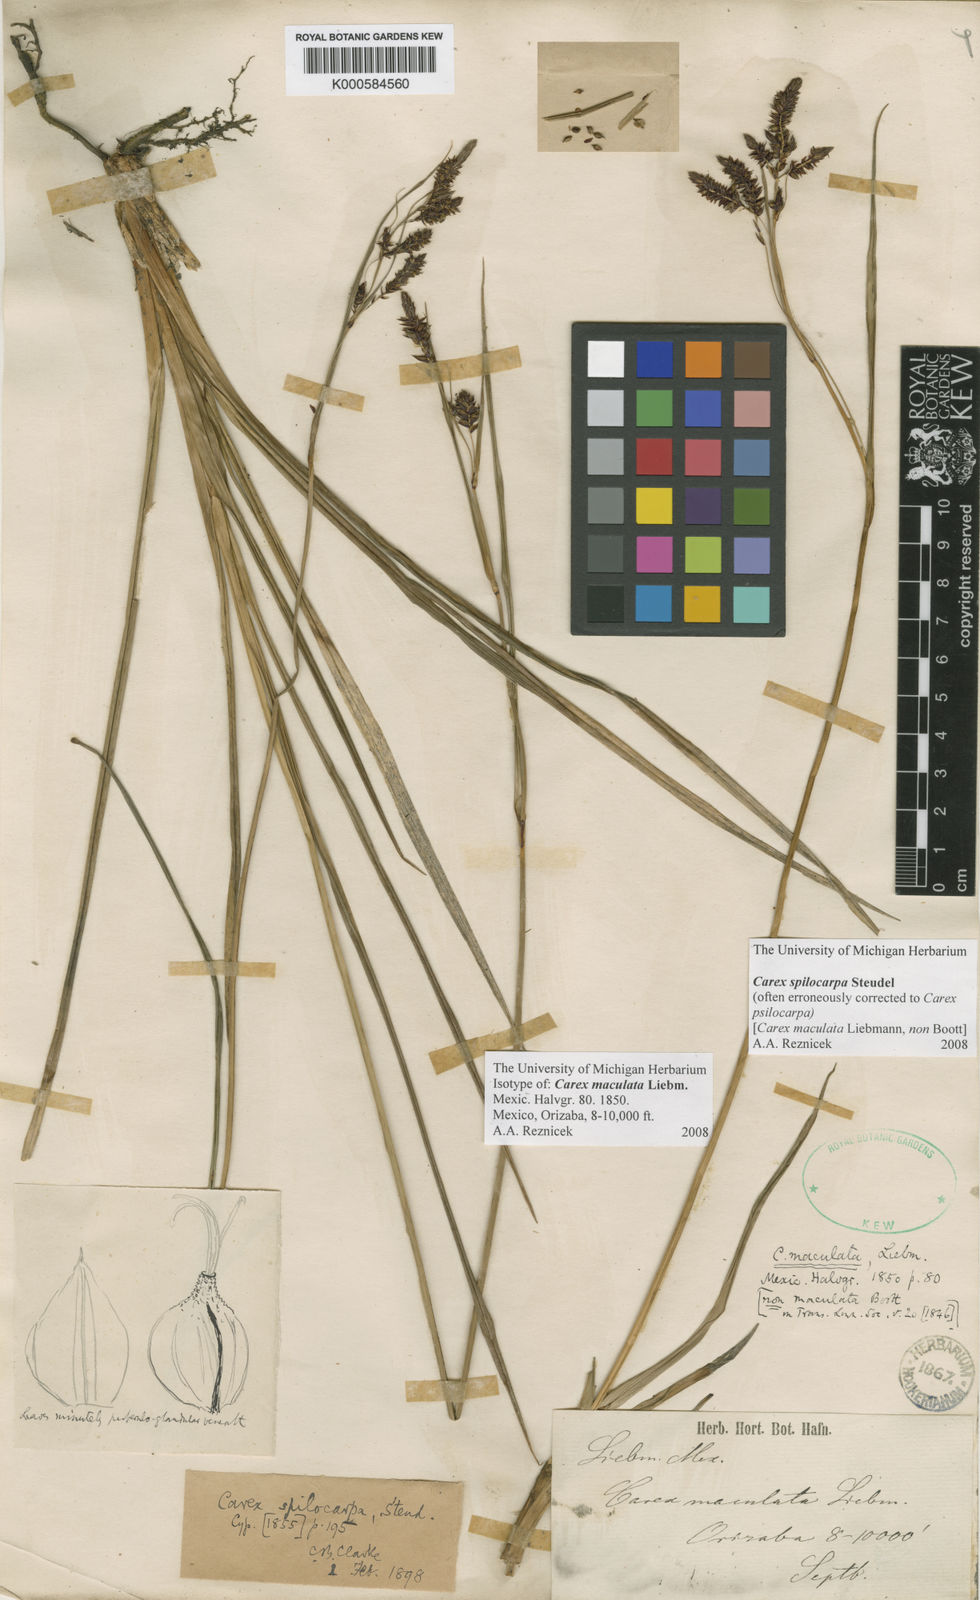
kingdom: Plantae
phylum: Tracheophyta
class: Liliopsida
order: Poales
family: Cyperaceae
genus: Carex
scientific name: Carex
